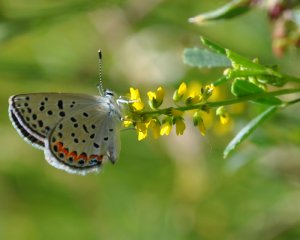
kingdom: Animalia
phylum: Arthropoda
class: Insecta
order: Lepidoptera
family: Lycaenidae
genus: Plebejus
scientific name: Plebejus acmon
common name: Acmon Blue
